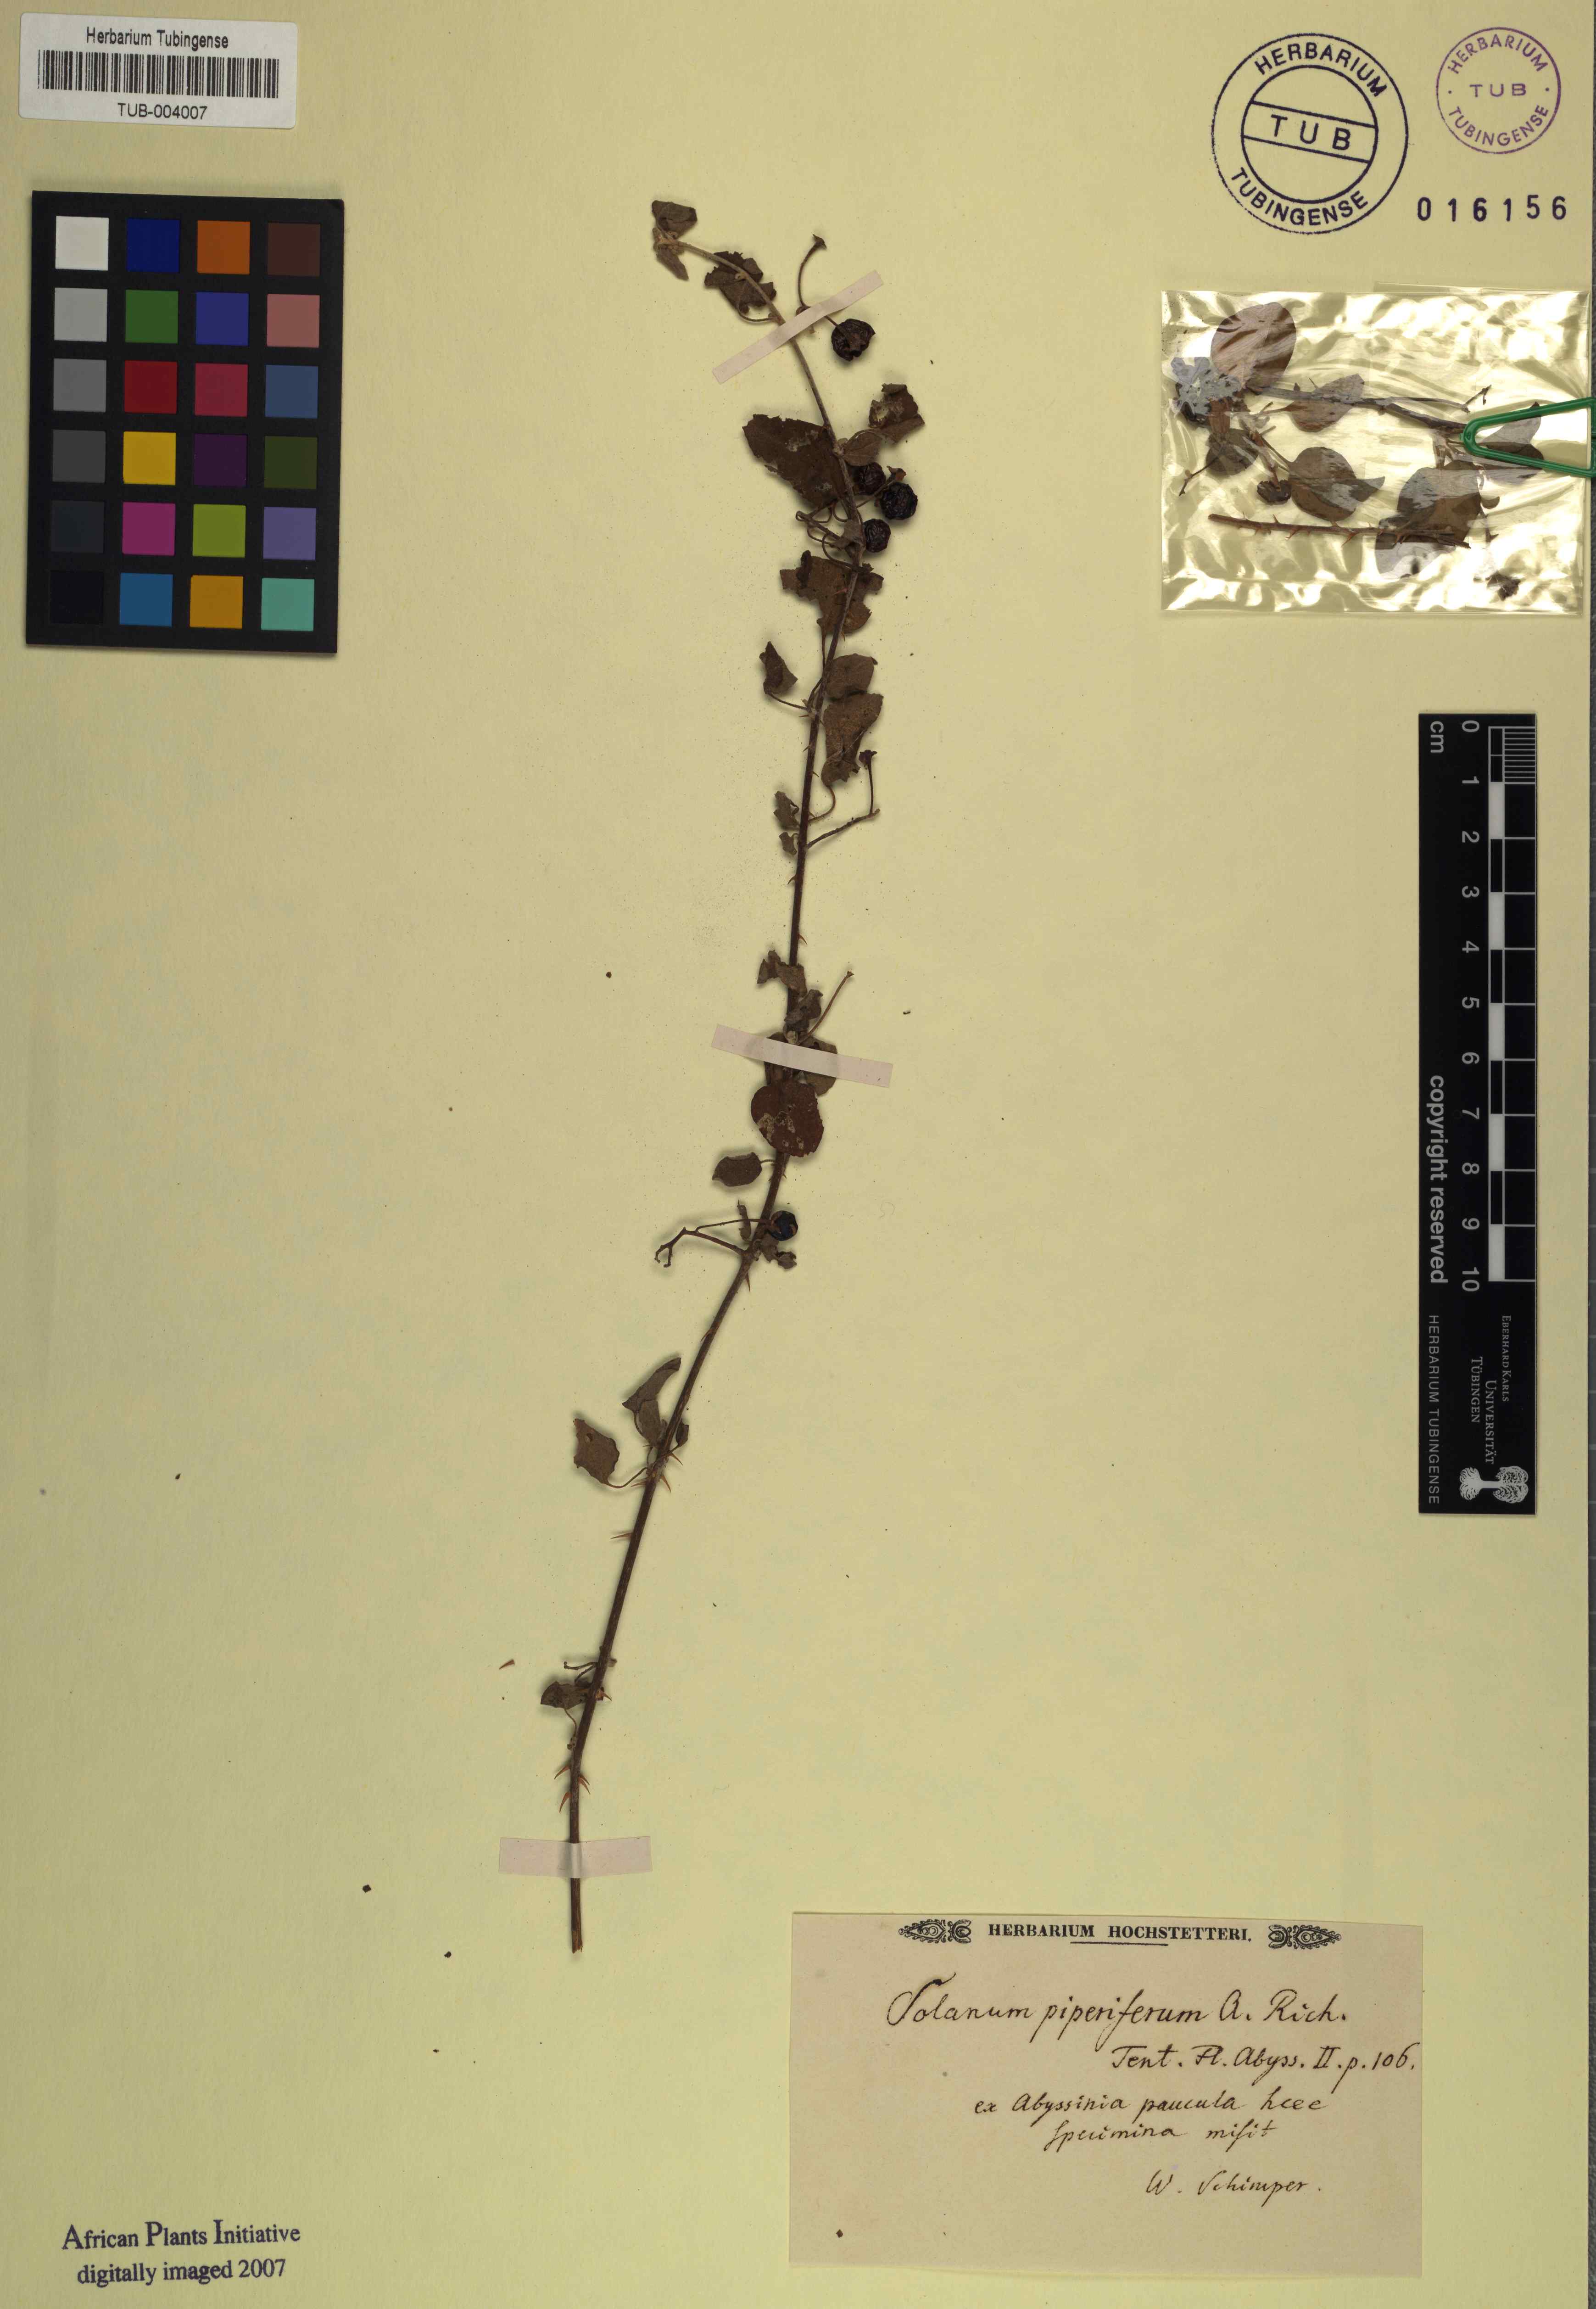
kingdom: Plantae
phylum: Tracheophyta
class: Magnoliopsida
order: Solanales
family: Solanaceae
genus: Solanum
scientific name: Solanum anguivi
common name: Forest bitterberry
